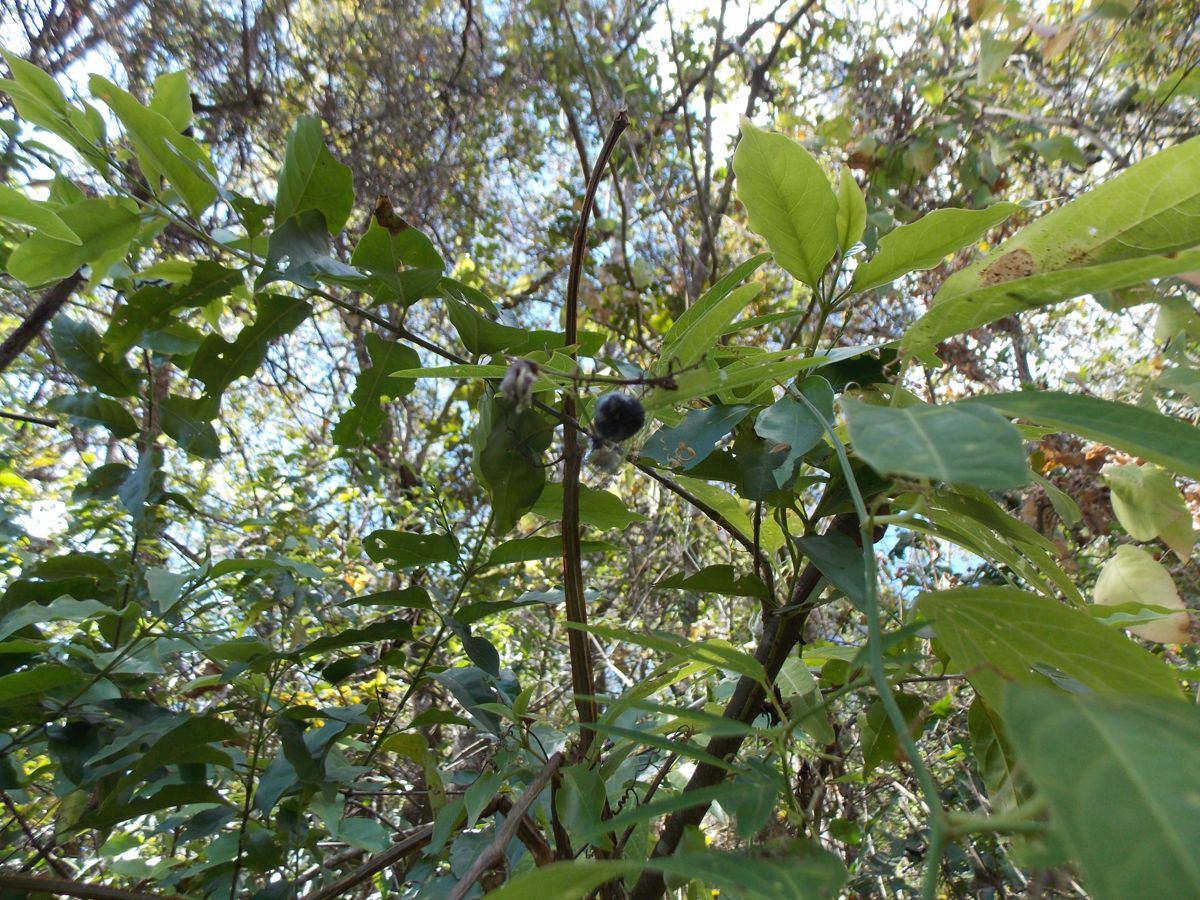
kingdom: Plantae
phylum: Tracheophyta
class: Magnoliopsida
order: Malpighiales
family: Passifloraceae
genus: Passiflora
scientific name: Passiflora ornithoura
